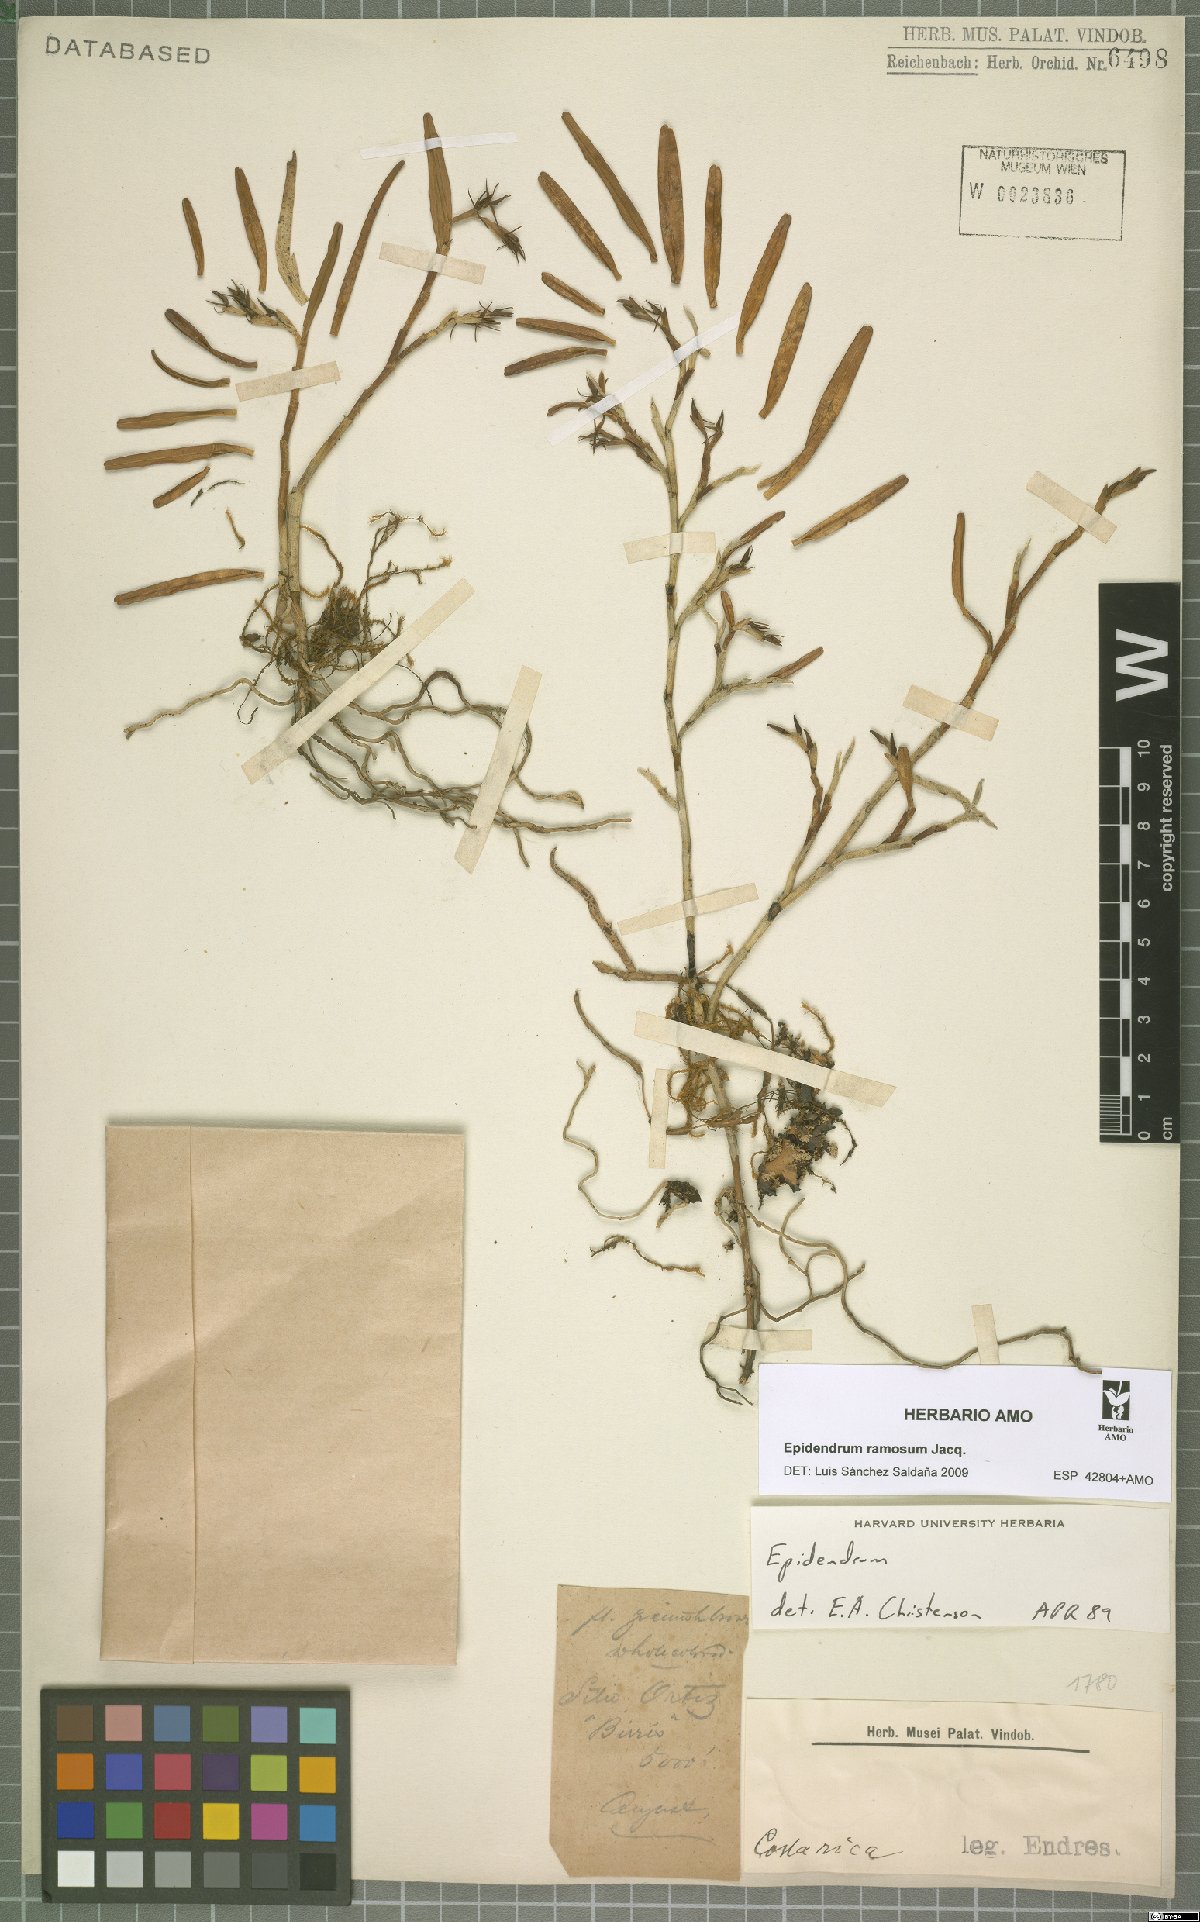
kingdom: Plantae
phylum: Tracheophyta
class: Liliopsida
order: Asparagales
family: Orchidaceae
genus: Epidendrum
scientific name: Epidendrum ramosum
